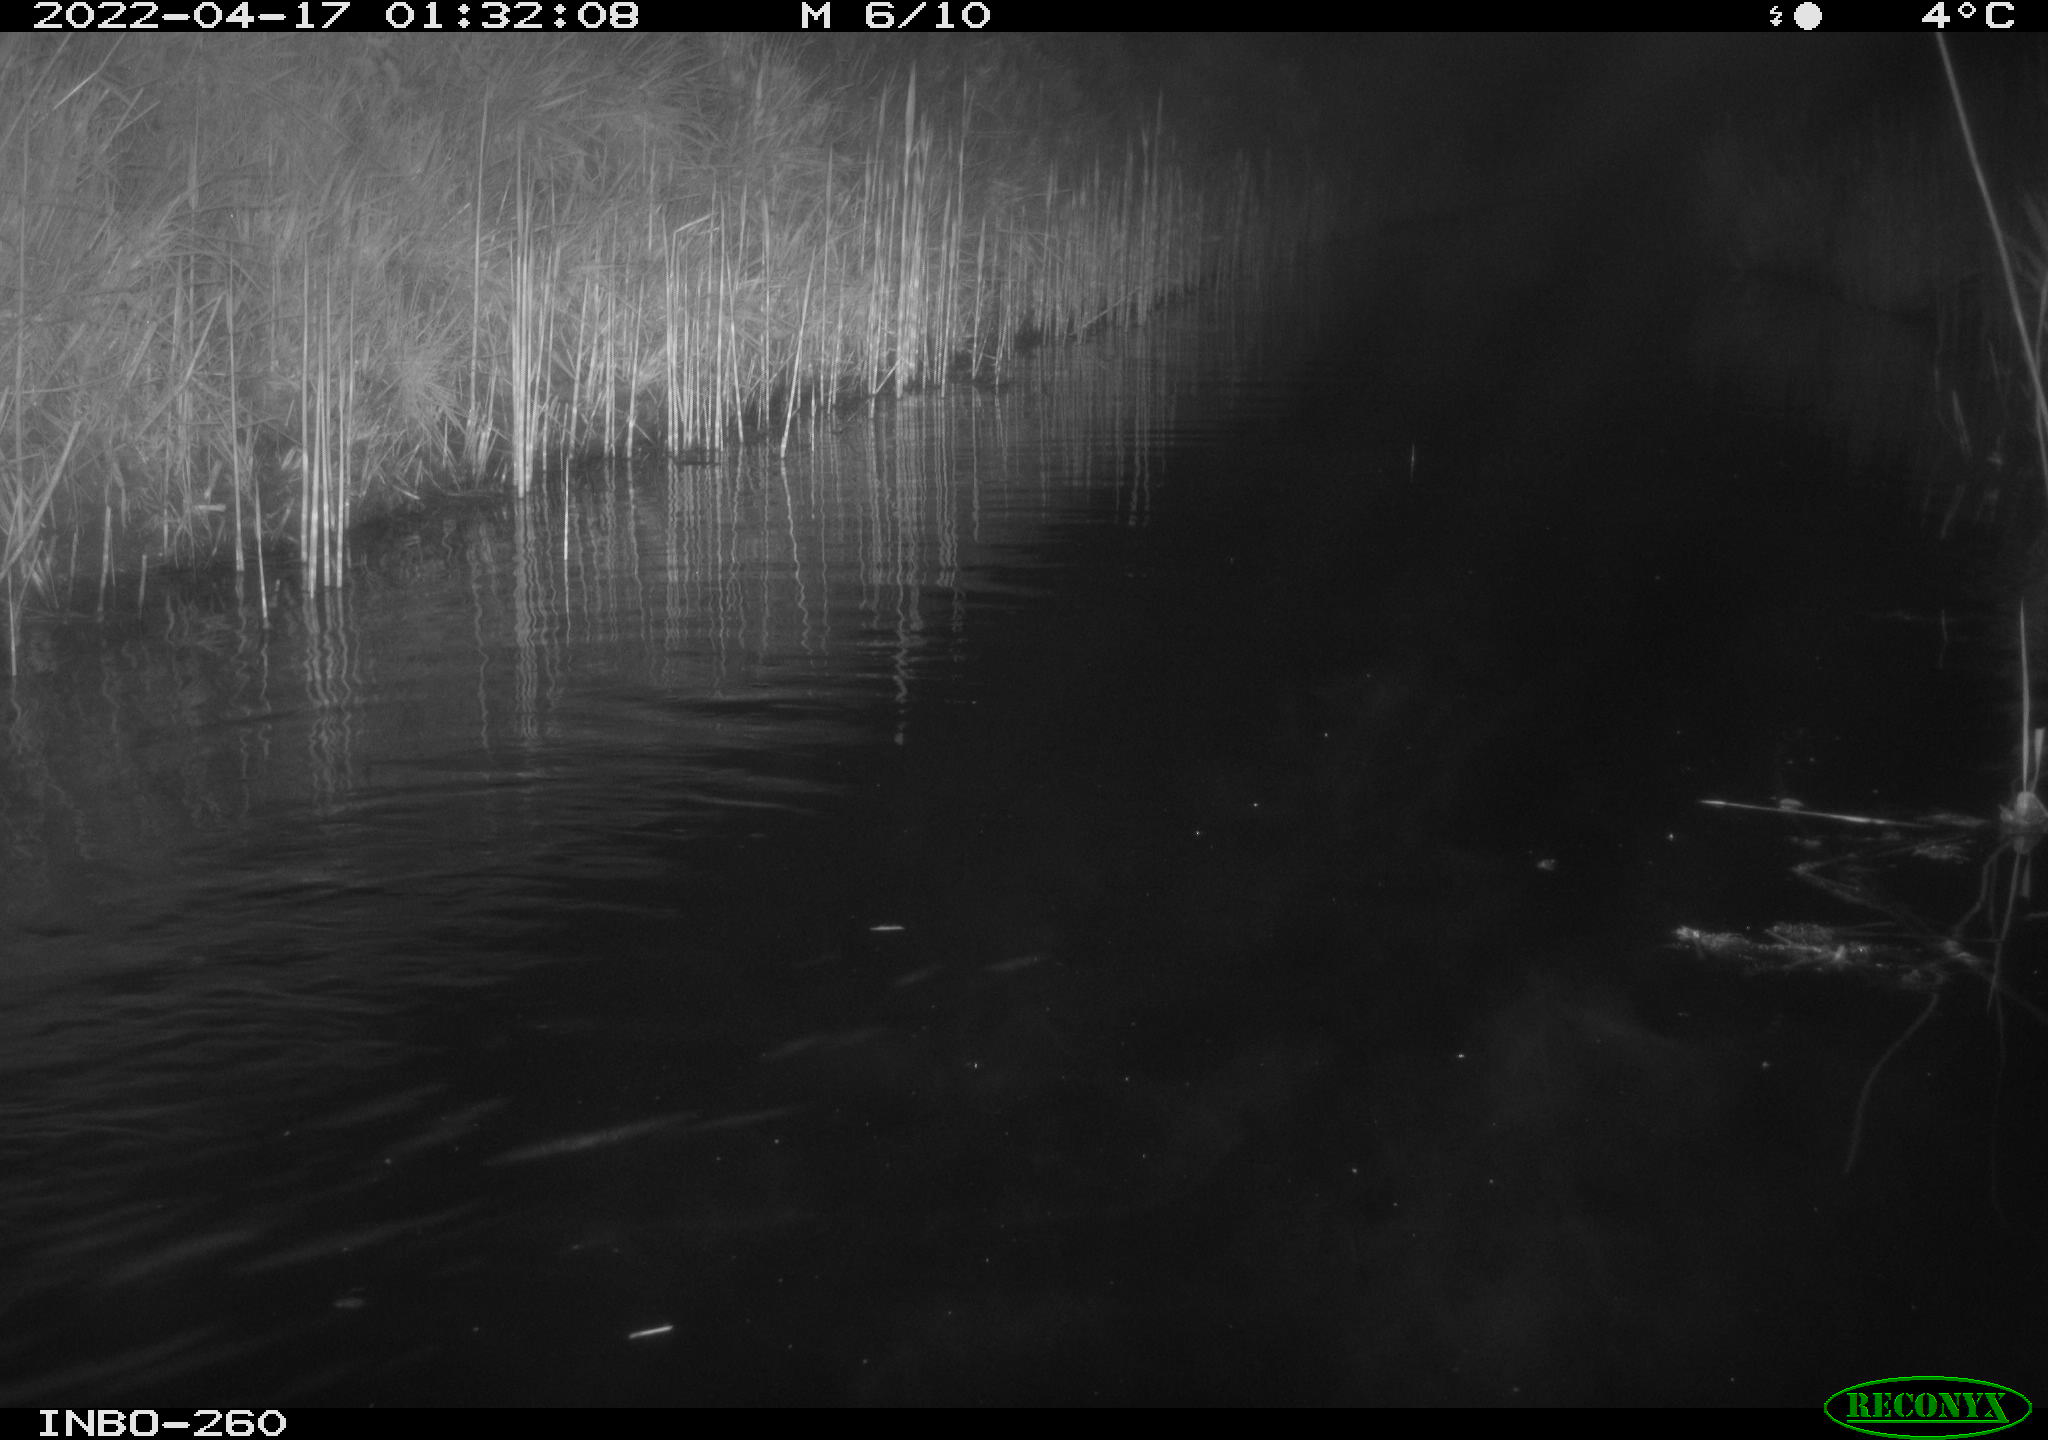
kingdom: Animalia
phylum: Chordata
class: Mammalia
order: Rodentia
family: Cricetidae
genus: Ondatra
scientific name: Ondatra zibethicus
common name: Muskrat
